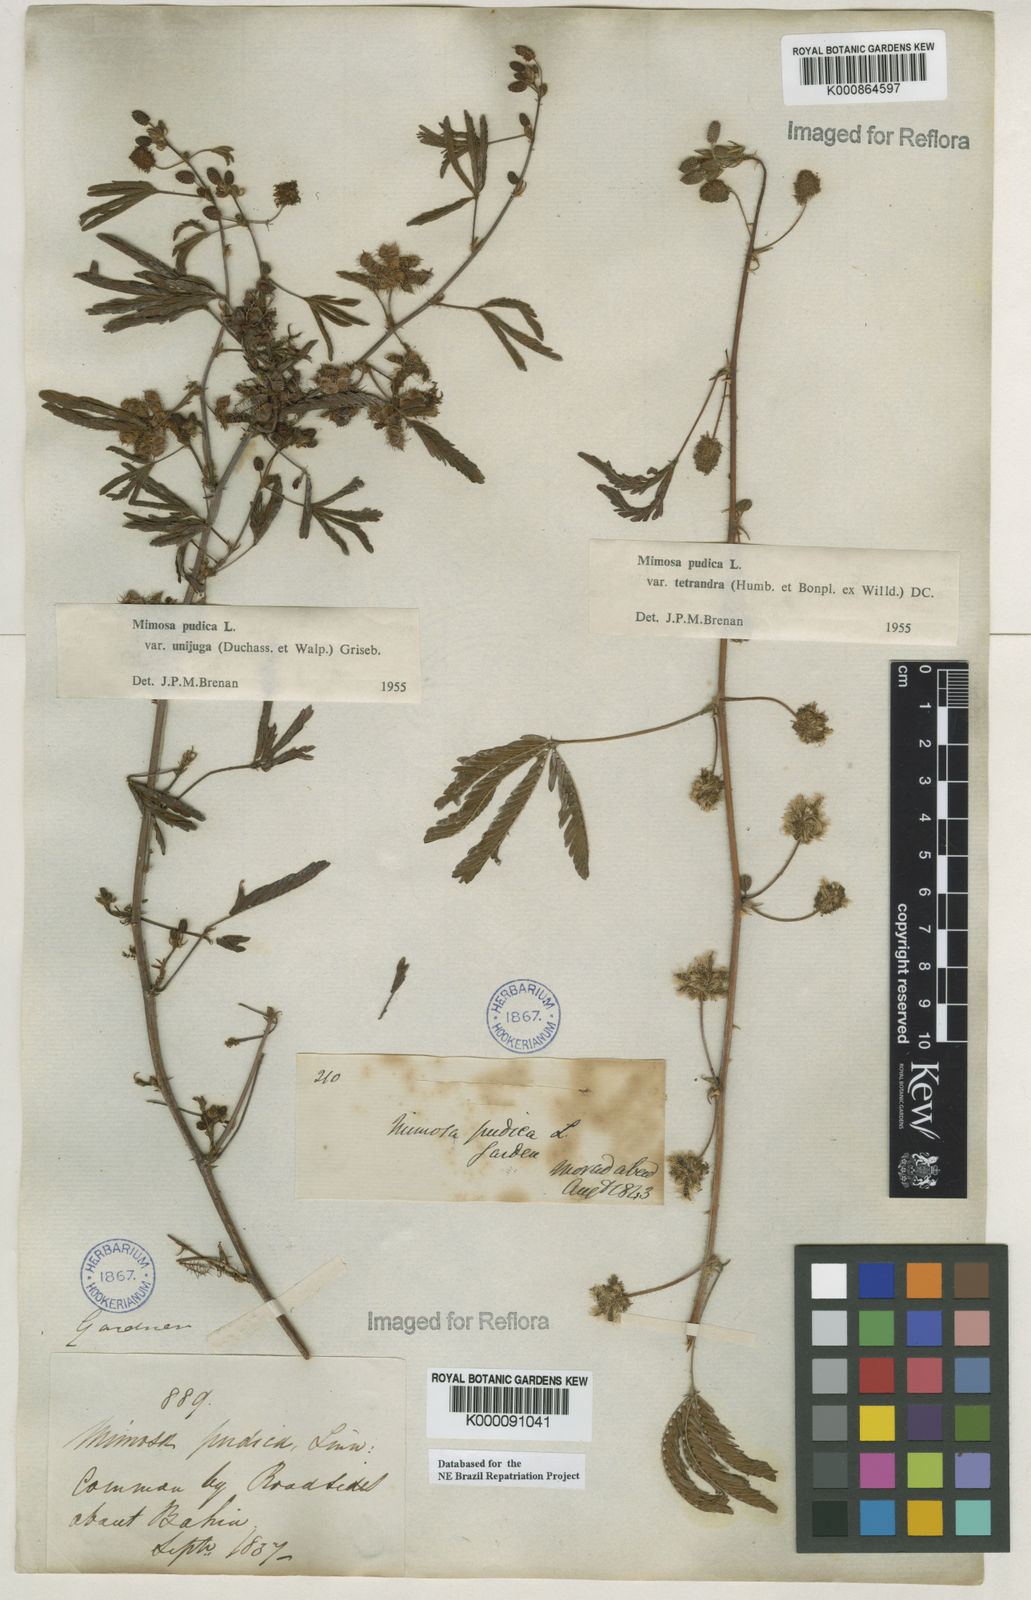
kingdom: Plantae
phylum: Tracheophyta
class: Magnoliopsida
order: Fabales
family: Fabaceae
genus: Mimosa
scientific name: Mimosa pudica
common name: Sensitive plant
